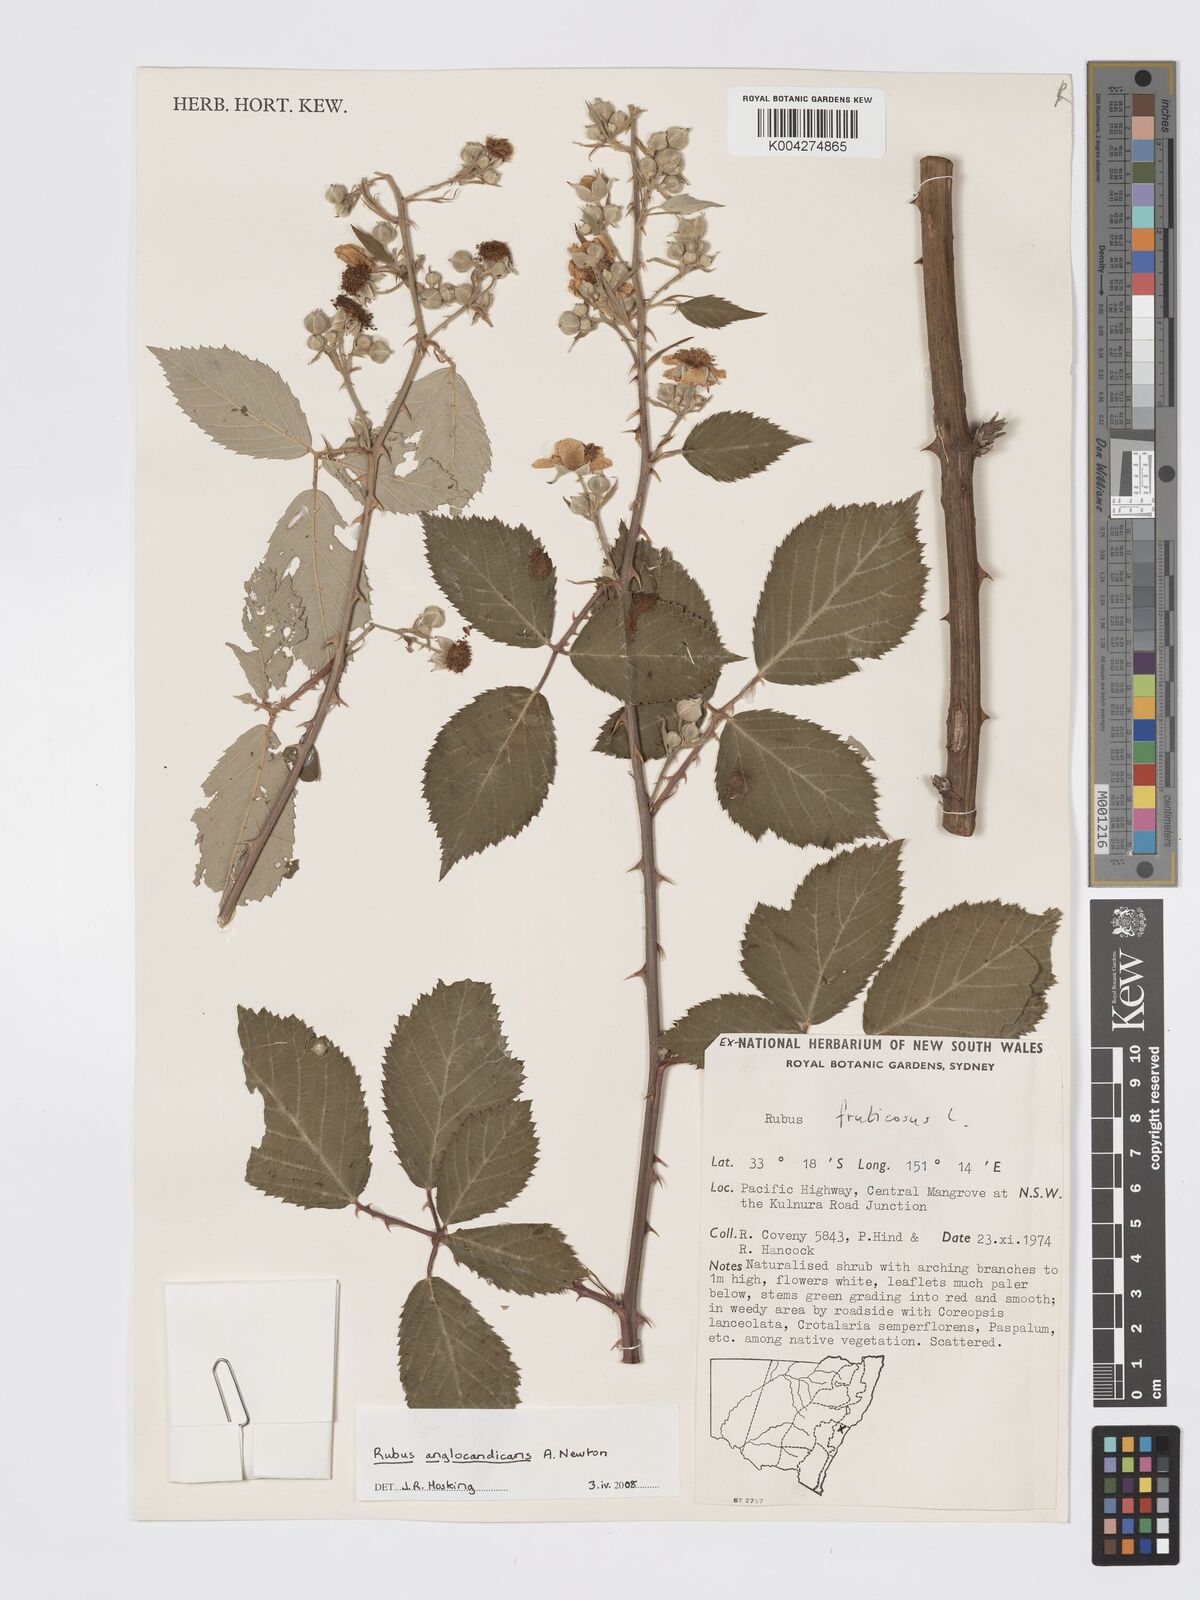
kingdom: Plantae
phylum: Tracheophyta
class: Magnoliopsida
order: Rosales
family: Rosaceae
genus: Rubus
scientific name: Rubus anglocandicans
